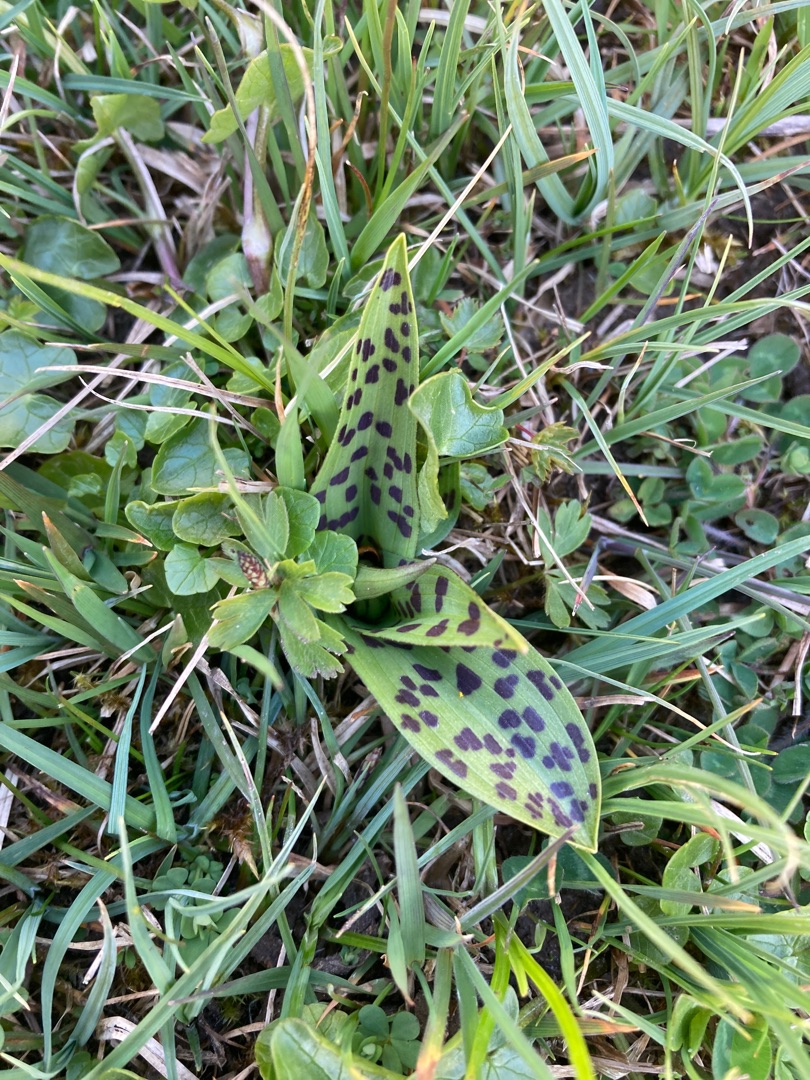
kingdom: Plantae
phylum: Tracheophyta
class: Liliopsida
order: Asparagales
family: Orchidaceae
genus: Dactylorhiza
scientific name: Dactylorhiza majalis
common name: Maj-gøgeurt
